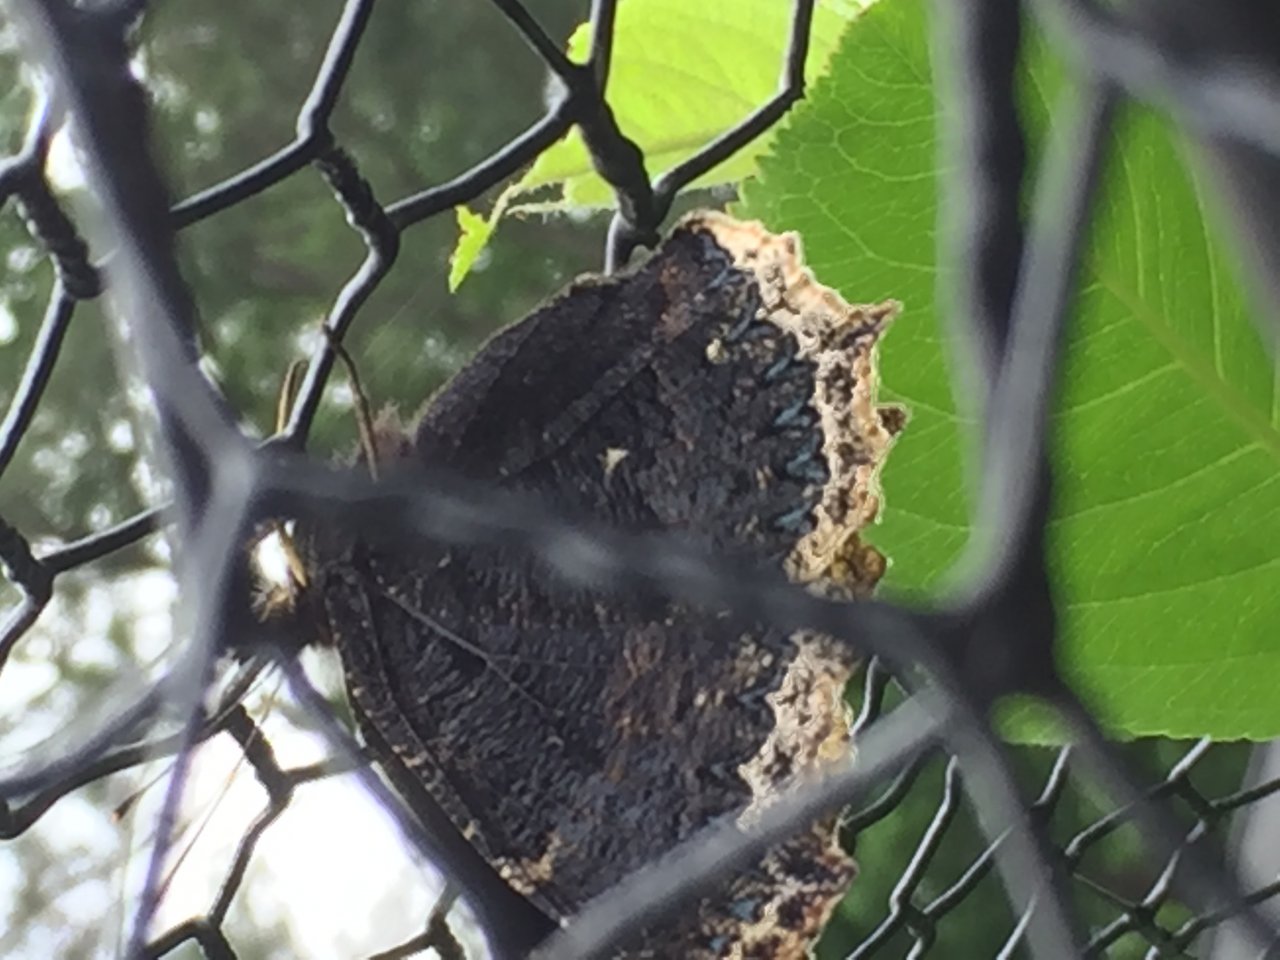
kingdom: Animalia
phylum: Arthropoda
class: Insecta
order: Lepidoptera
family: Nymphalidae
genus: Nymphalis
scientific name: Nymphalis antiopa
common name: Mourning Cloak
